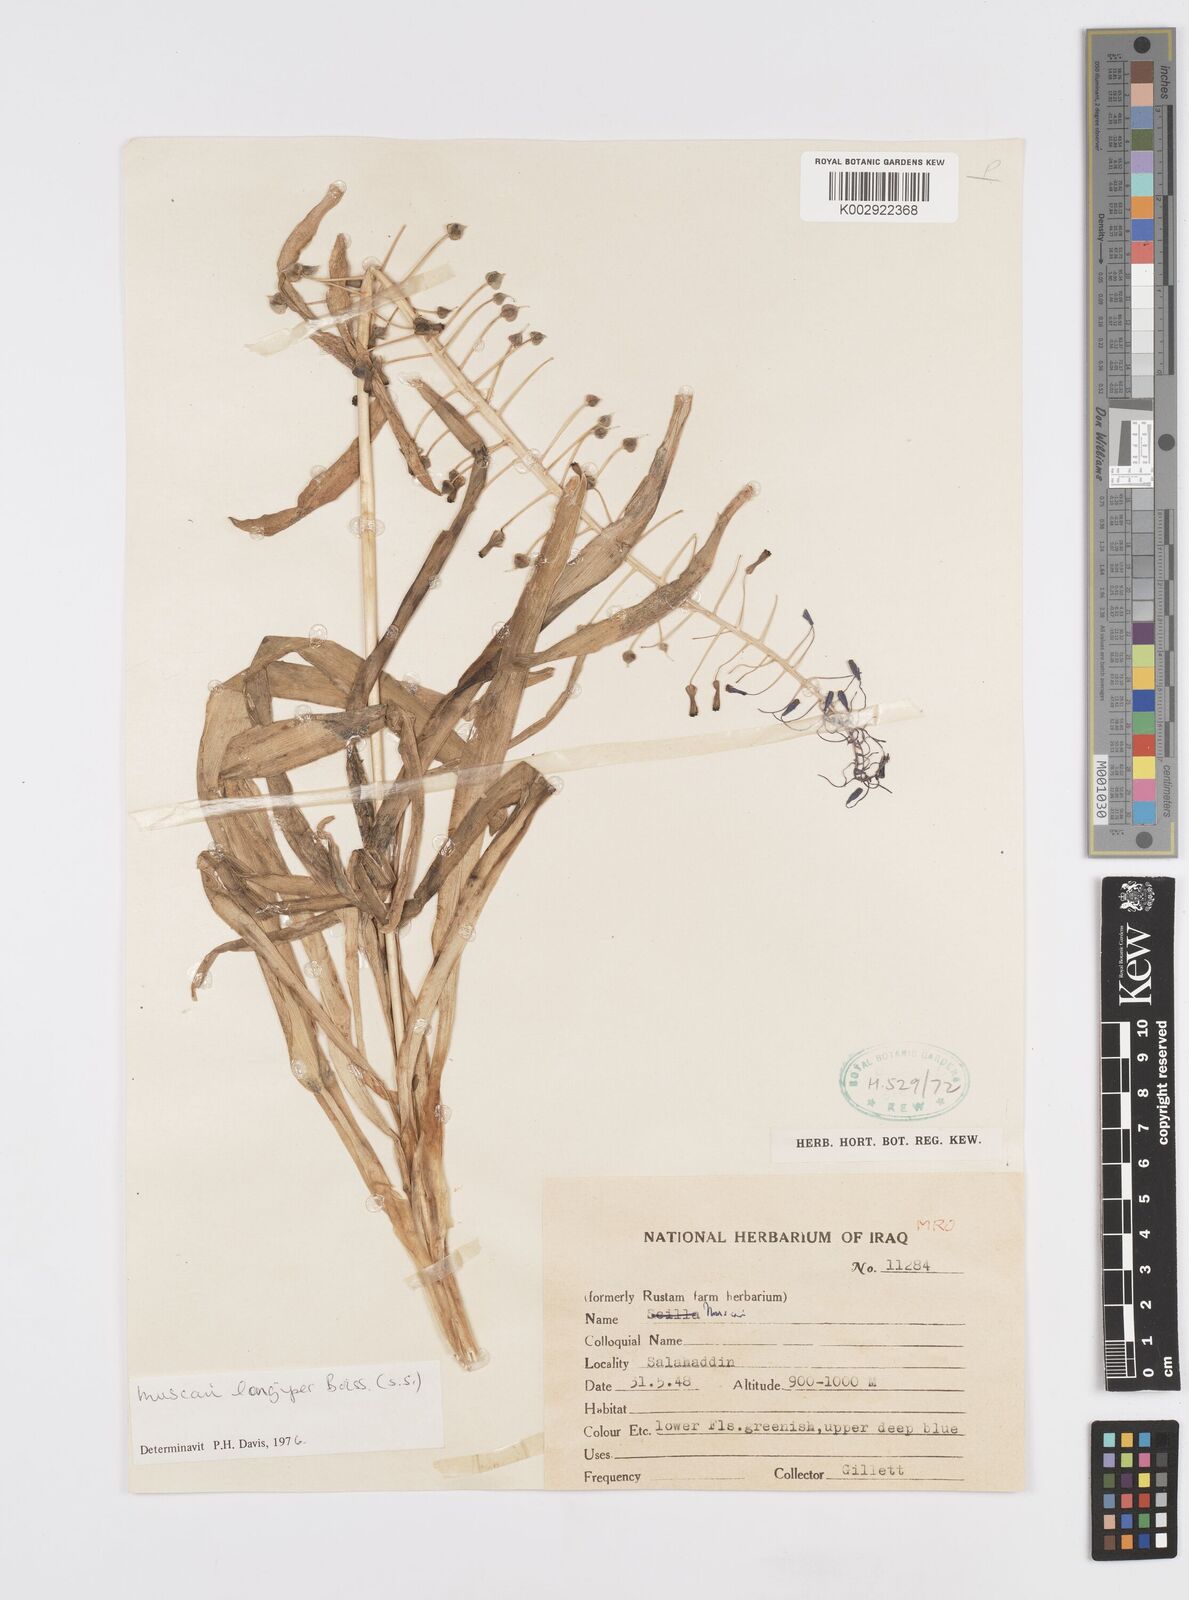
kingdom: Plantae
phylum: Tracheophyta
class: Liliopsida
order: Asparagales
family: Asparagaceae
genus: Muscari
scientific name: Muscari longipes
